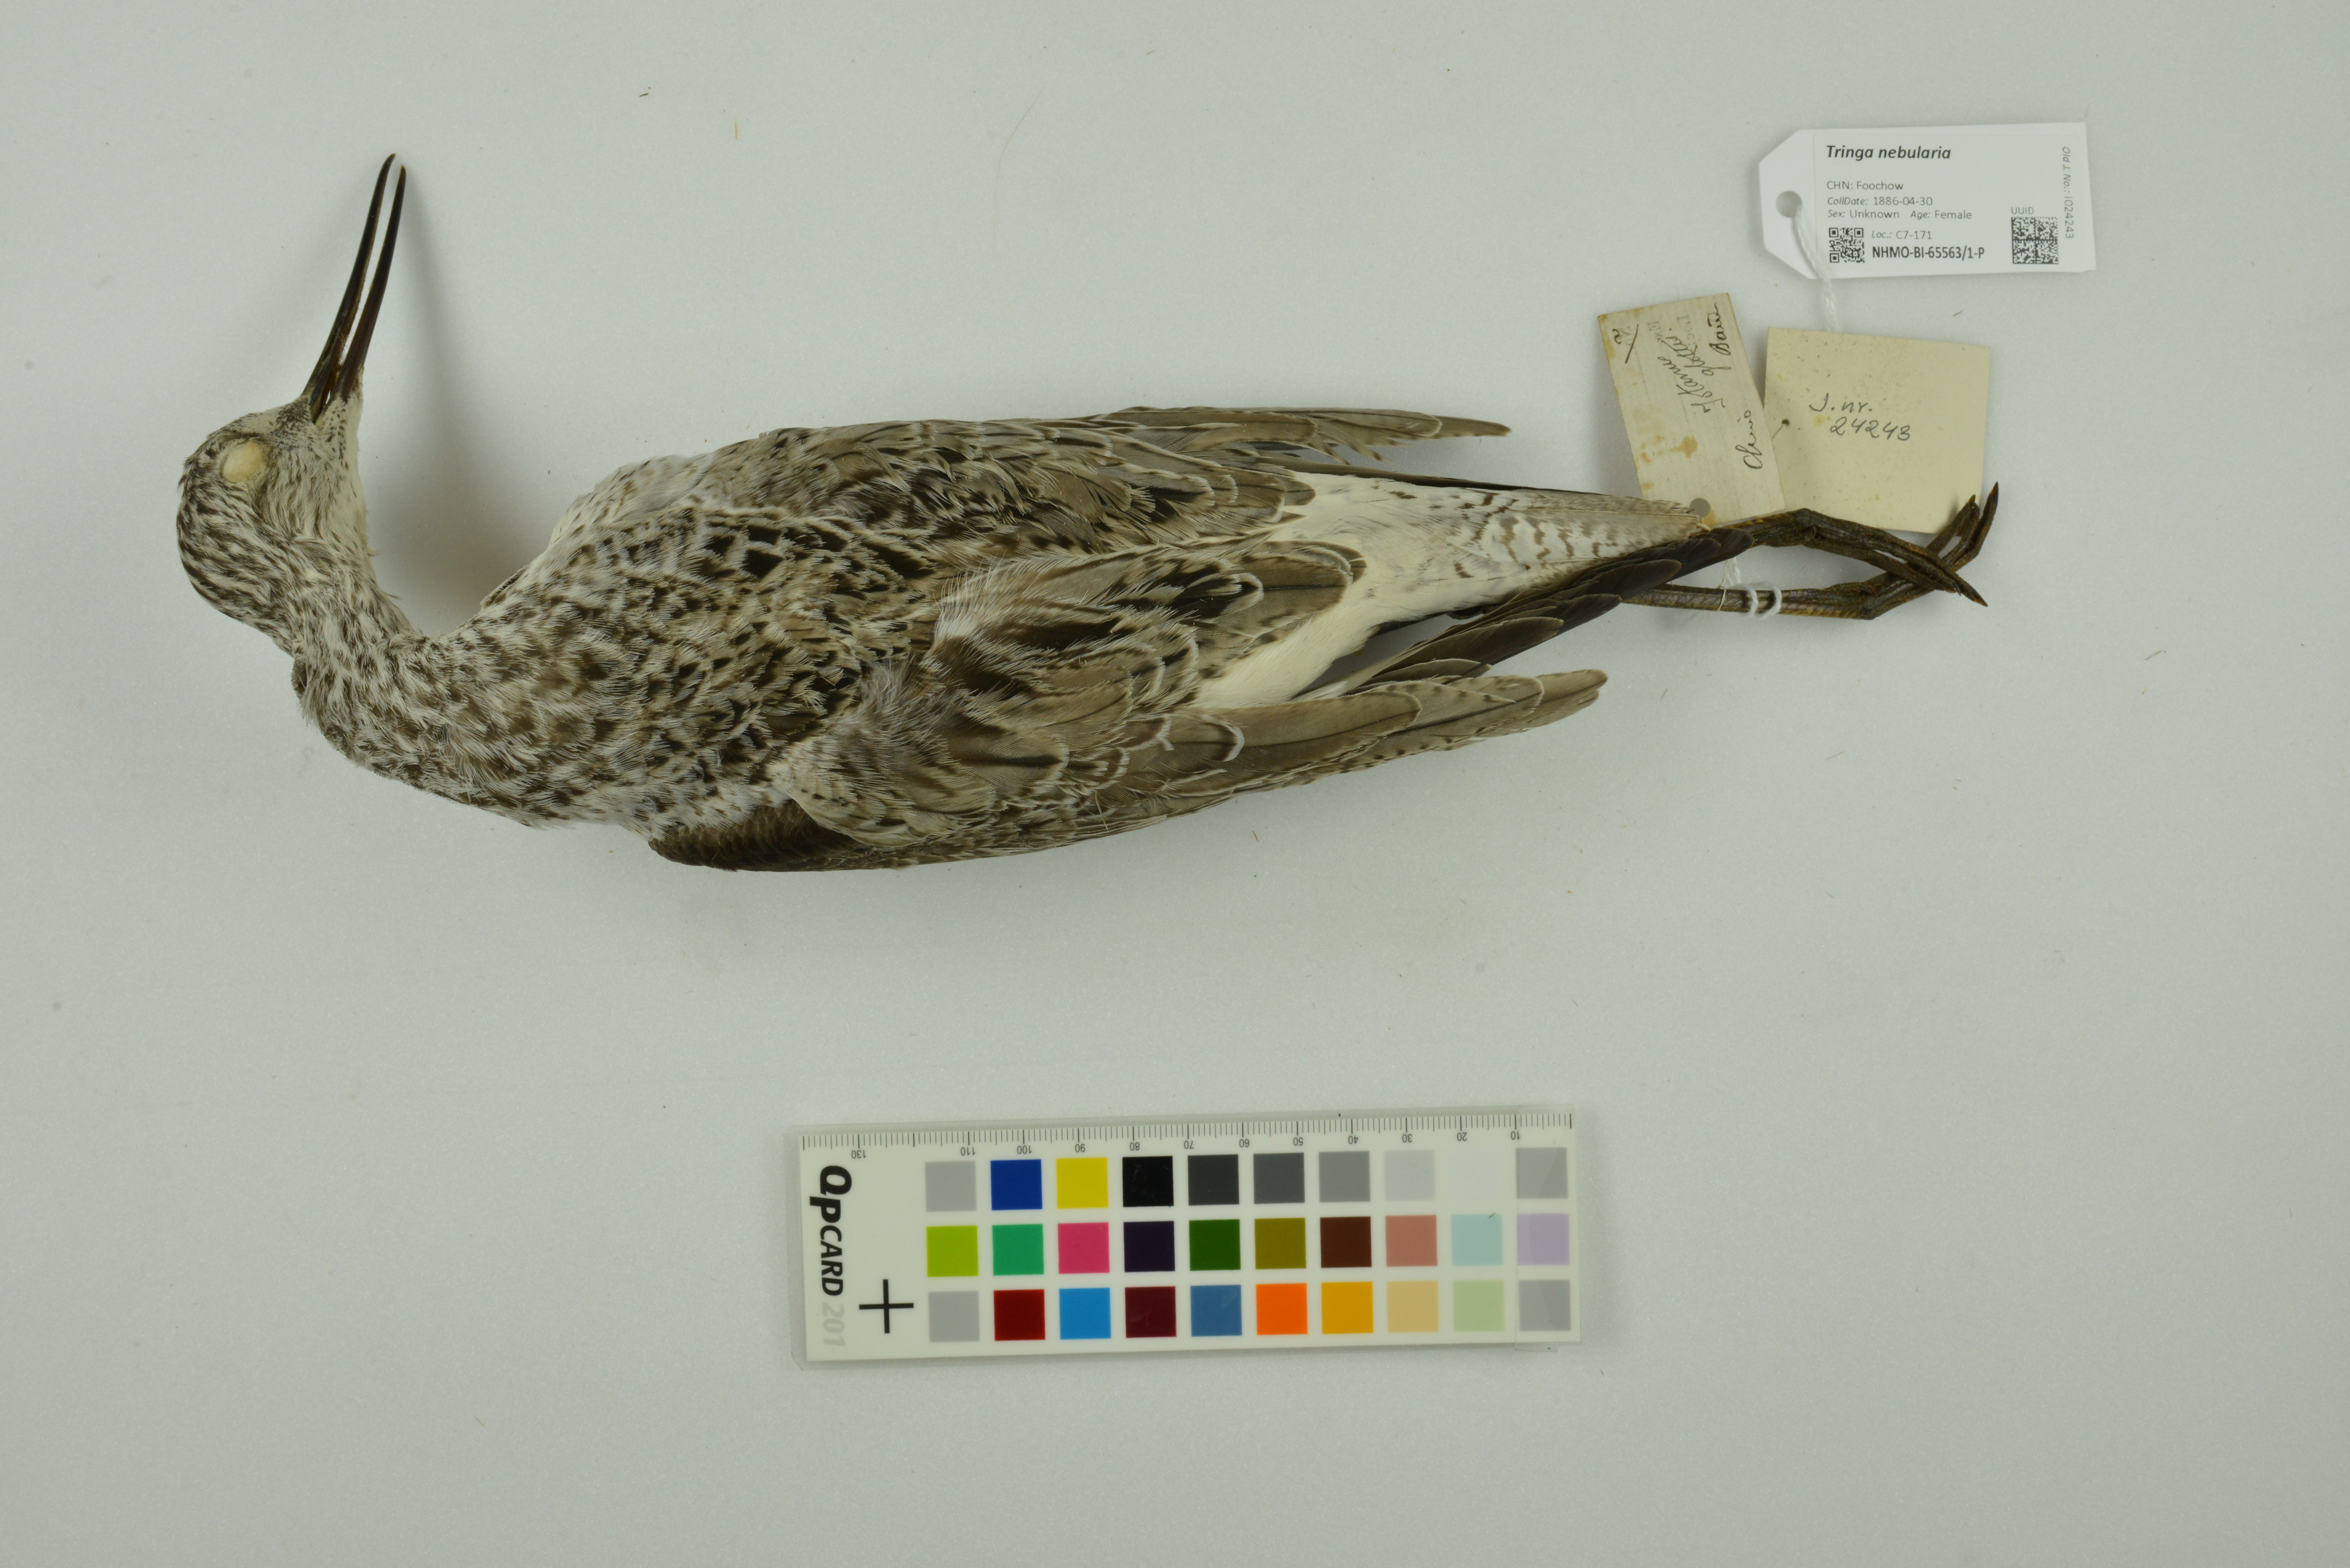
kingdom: Animalia
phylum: Chordata
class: Aves
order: Charadriiformes
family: Scolopacidae
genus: Tringa
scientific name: Tringa nebularia
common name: Common greenshank
